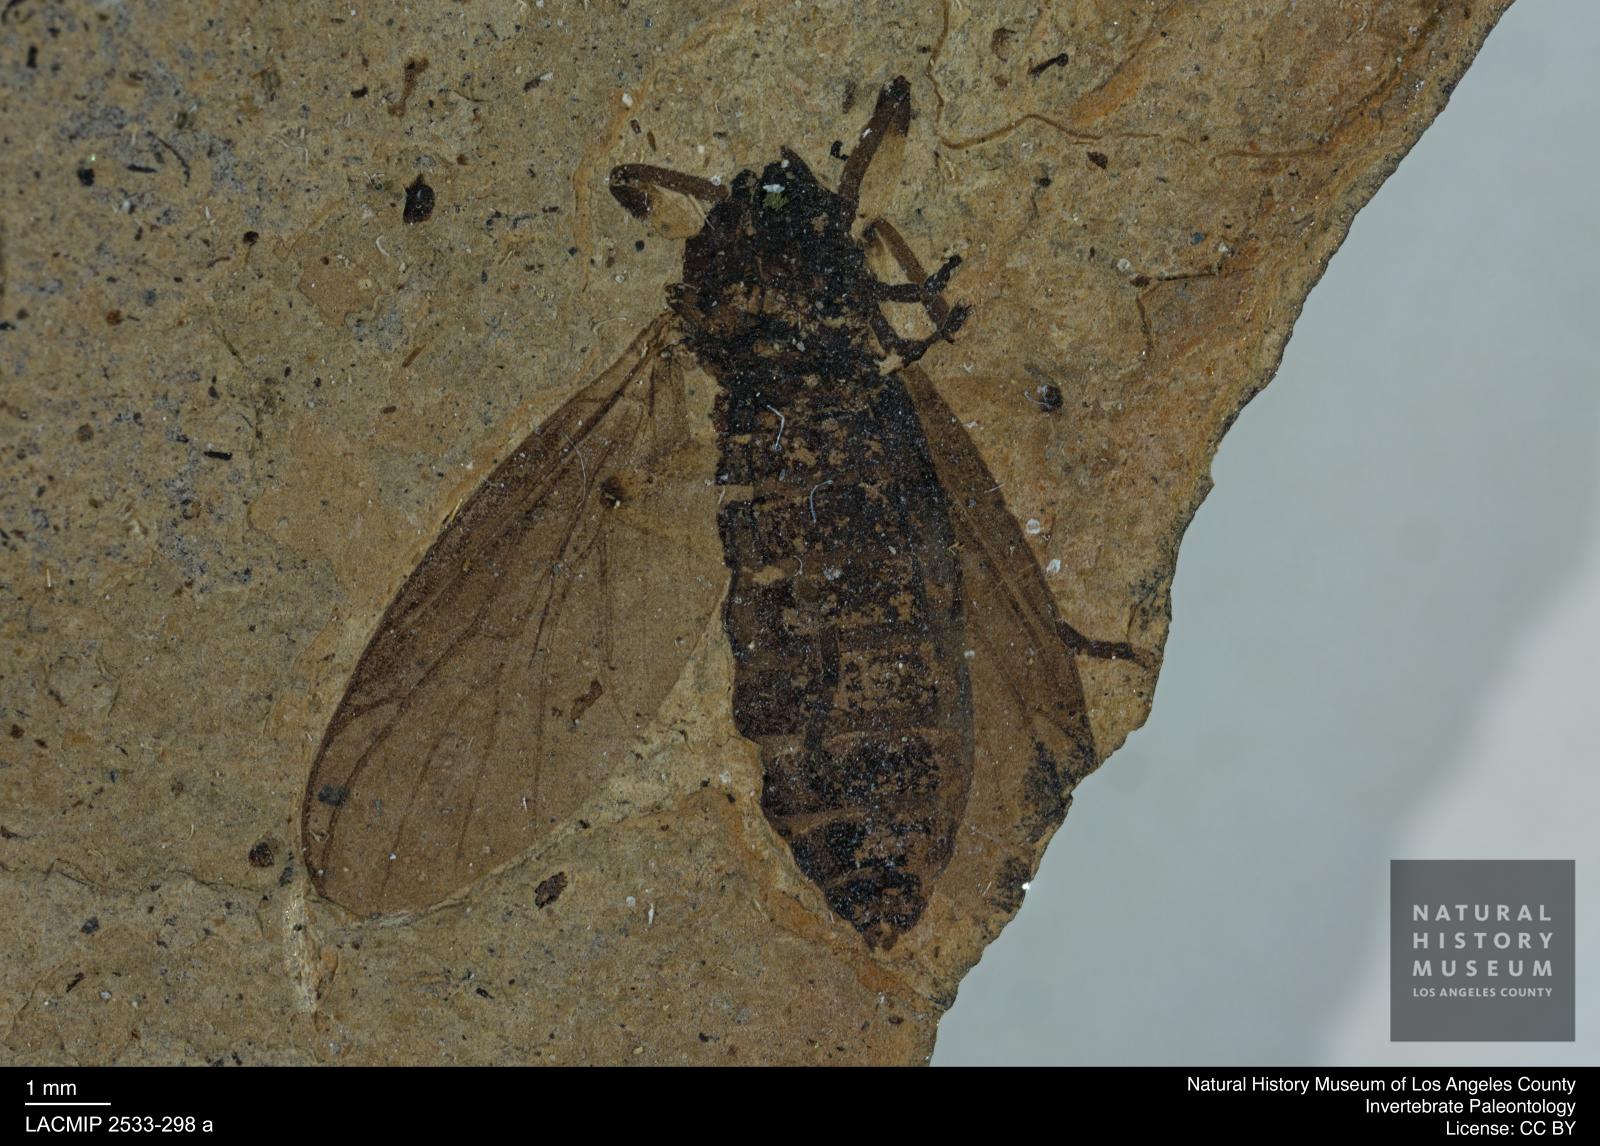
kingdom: Animalia
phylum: Arthropoda
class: Insecta
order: Diptera
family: Bibionidae
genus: Plecia
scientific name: Plecia winnertzi
